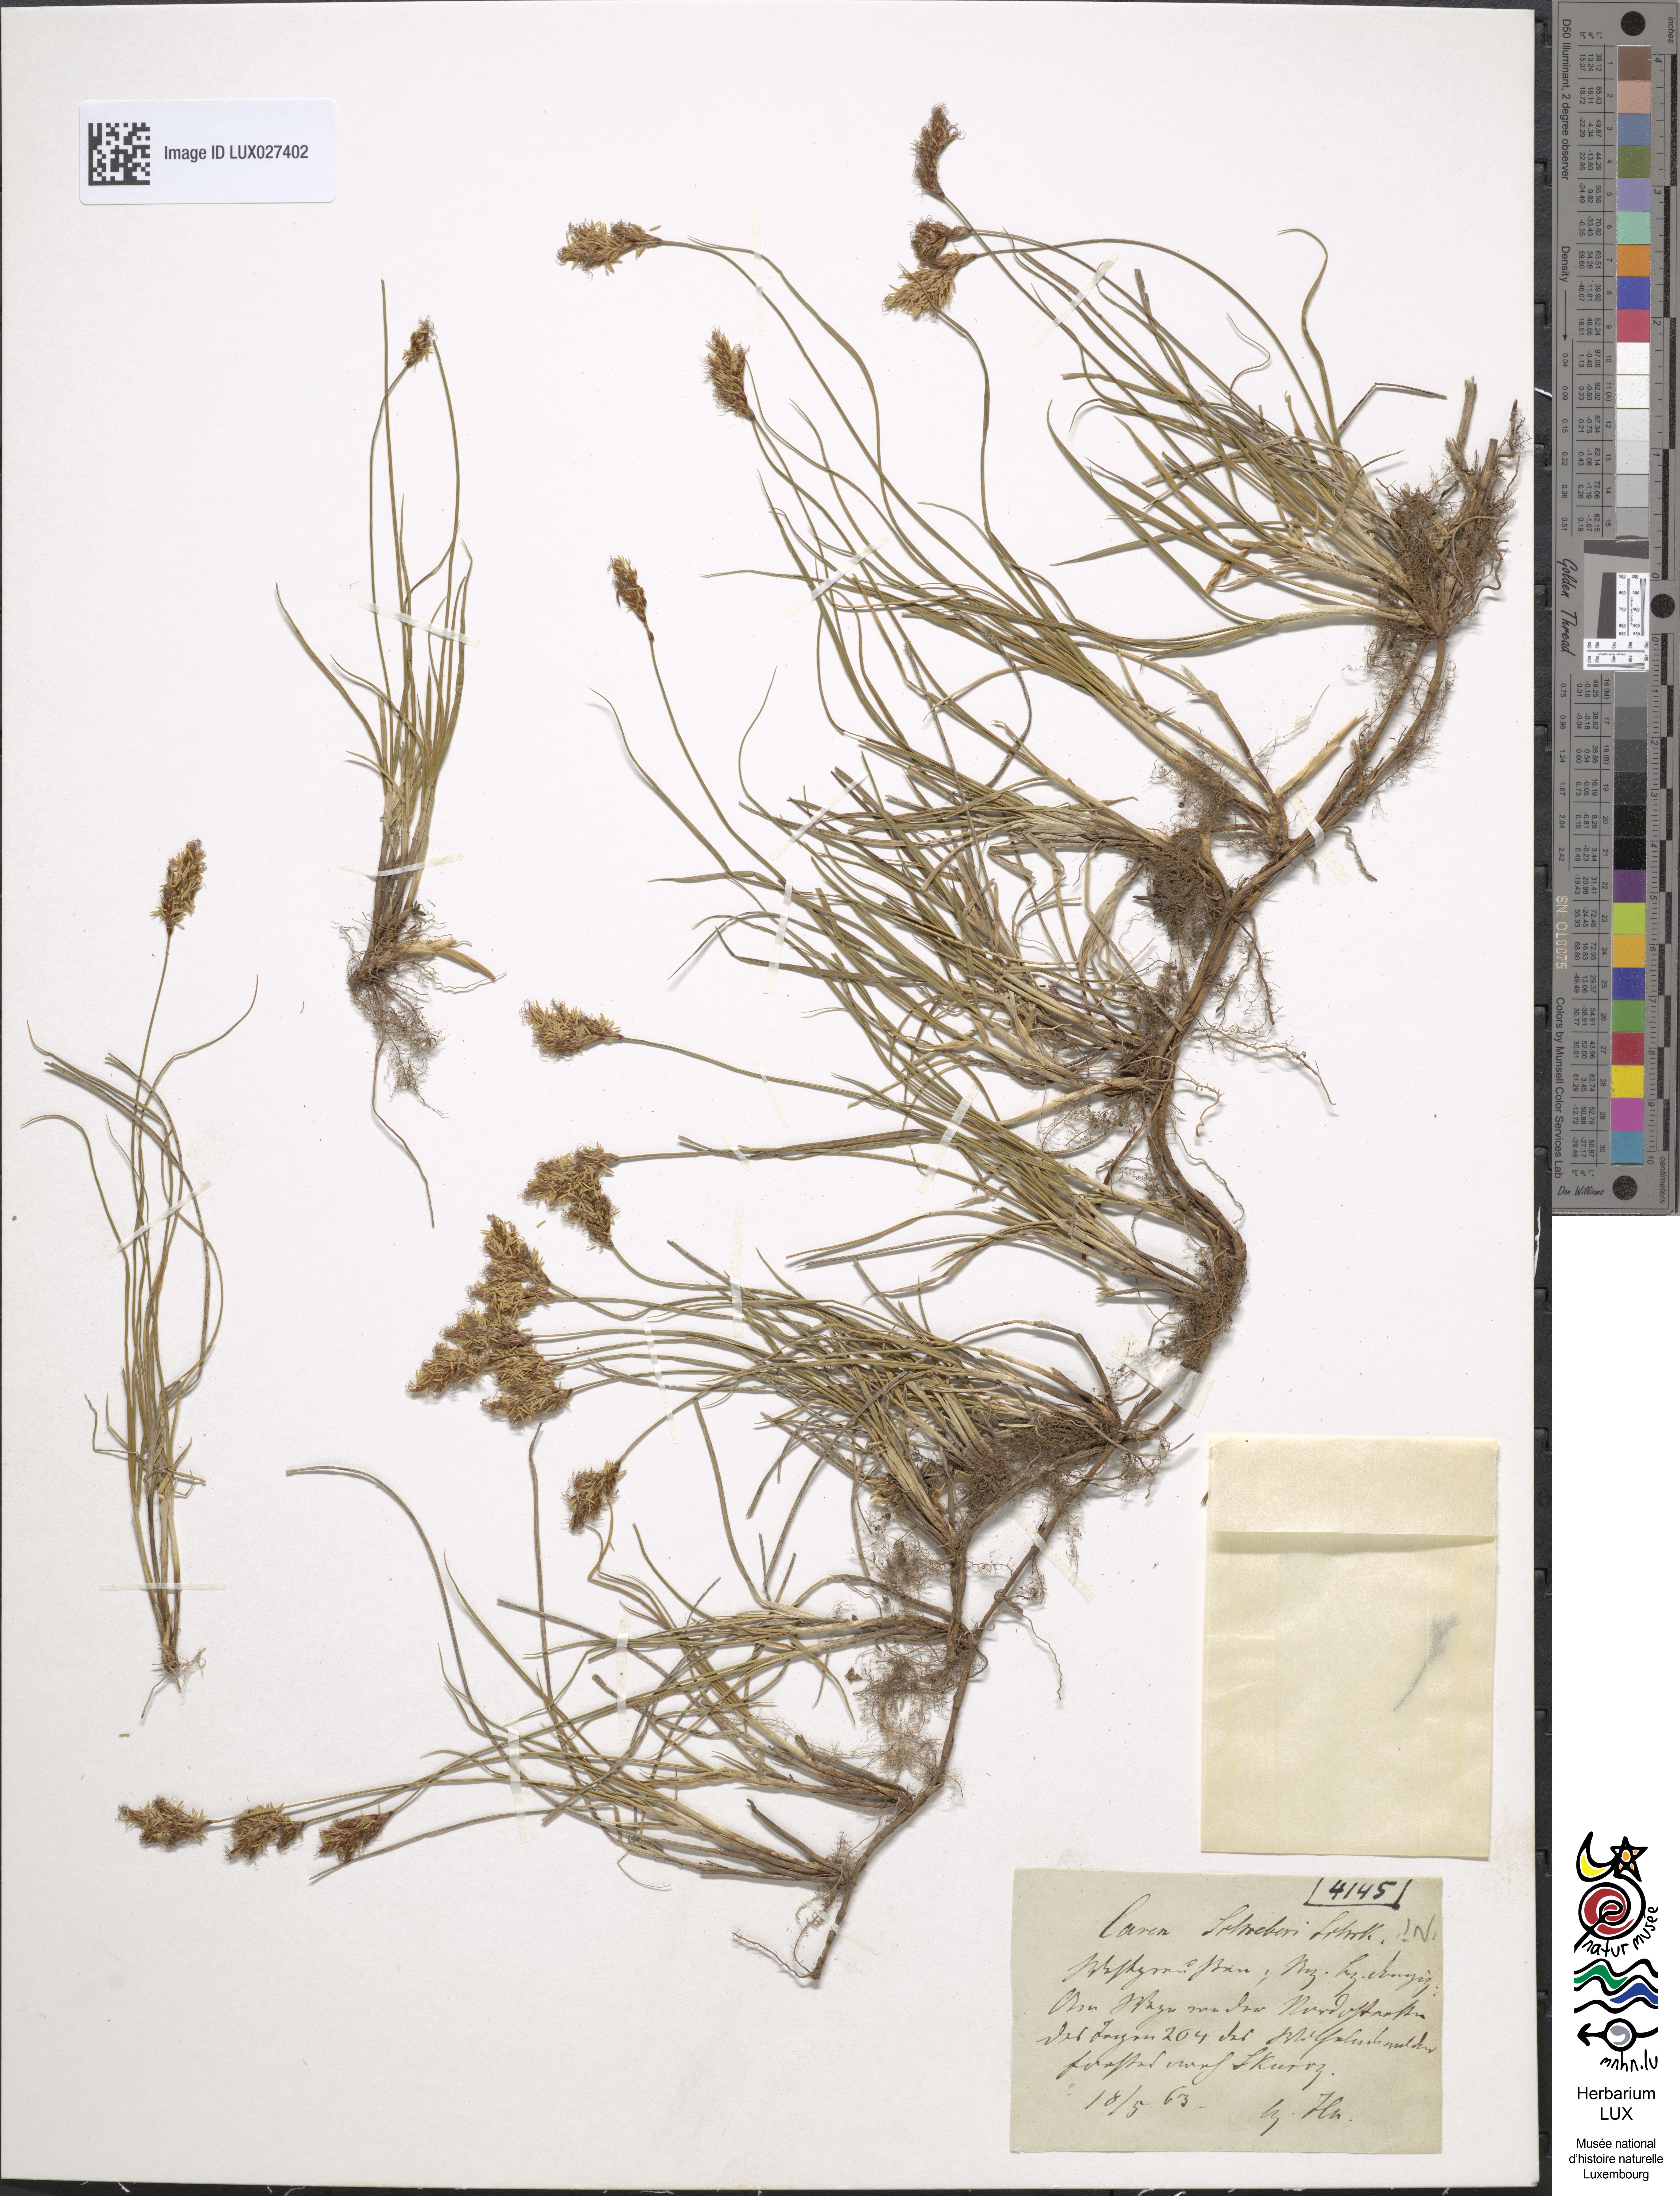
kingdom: Plantae
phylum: Tracheophyta
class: Liliopsida
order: Poales
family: Cyperaceae
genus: Carex
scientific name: Carex praecox
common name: Early sedge
